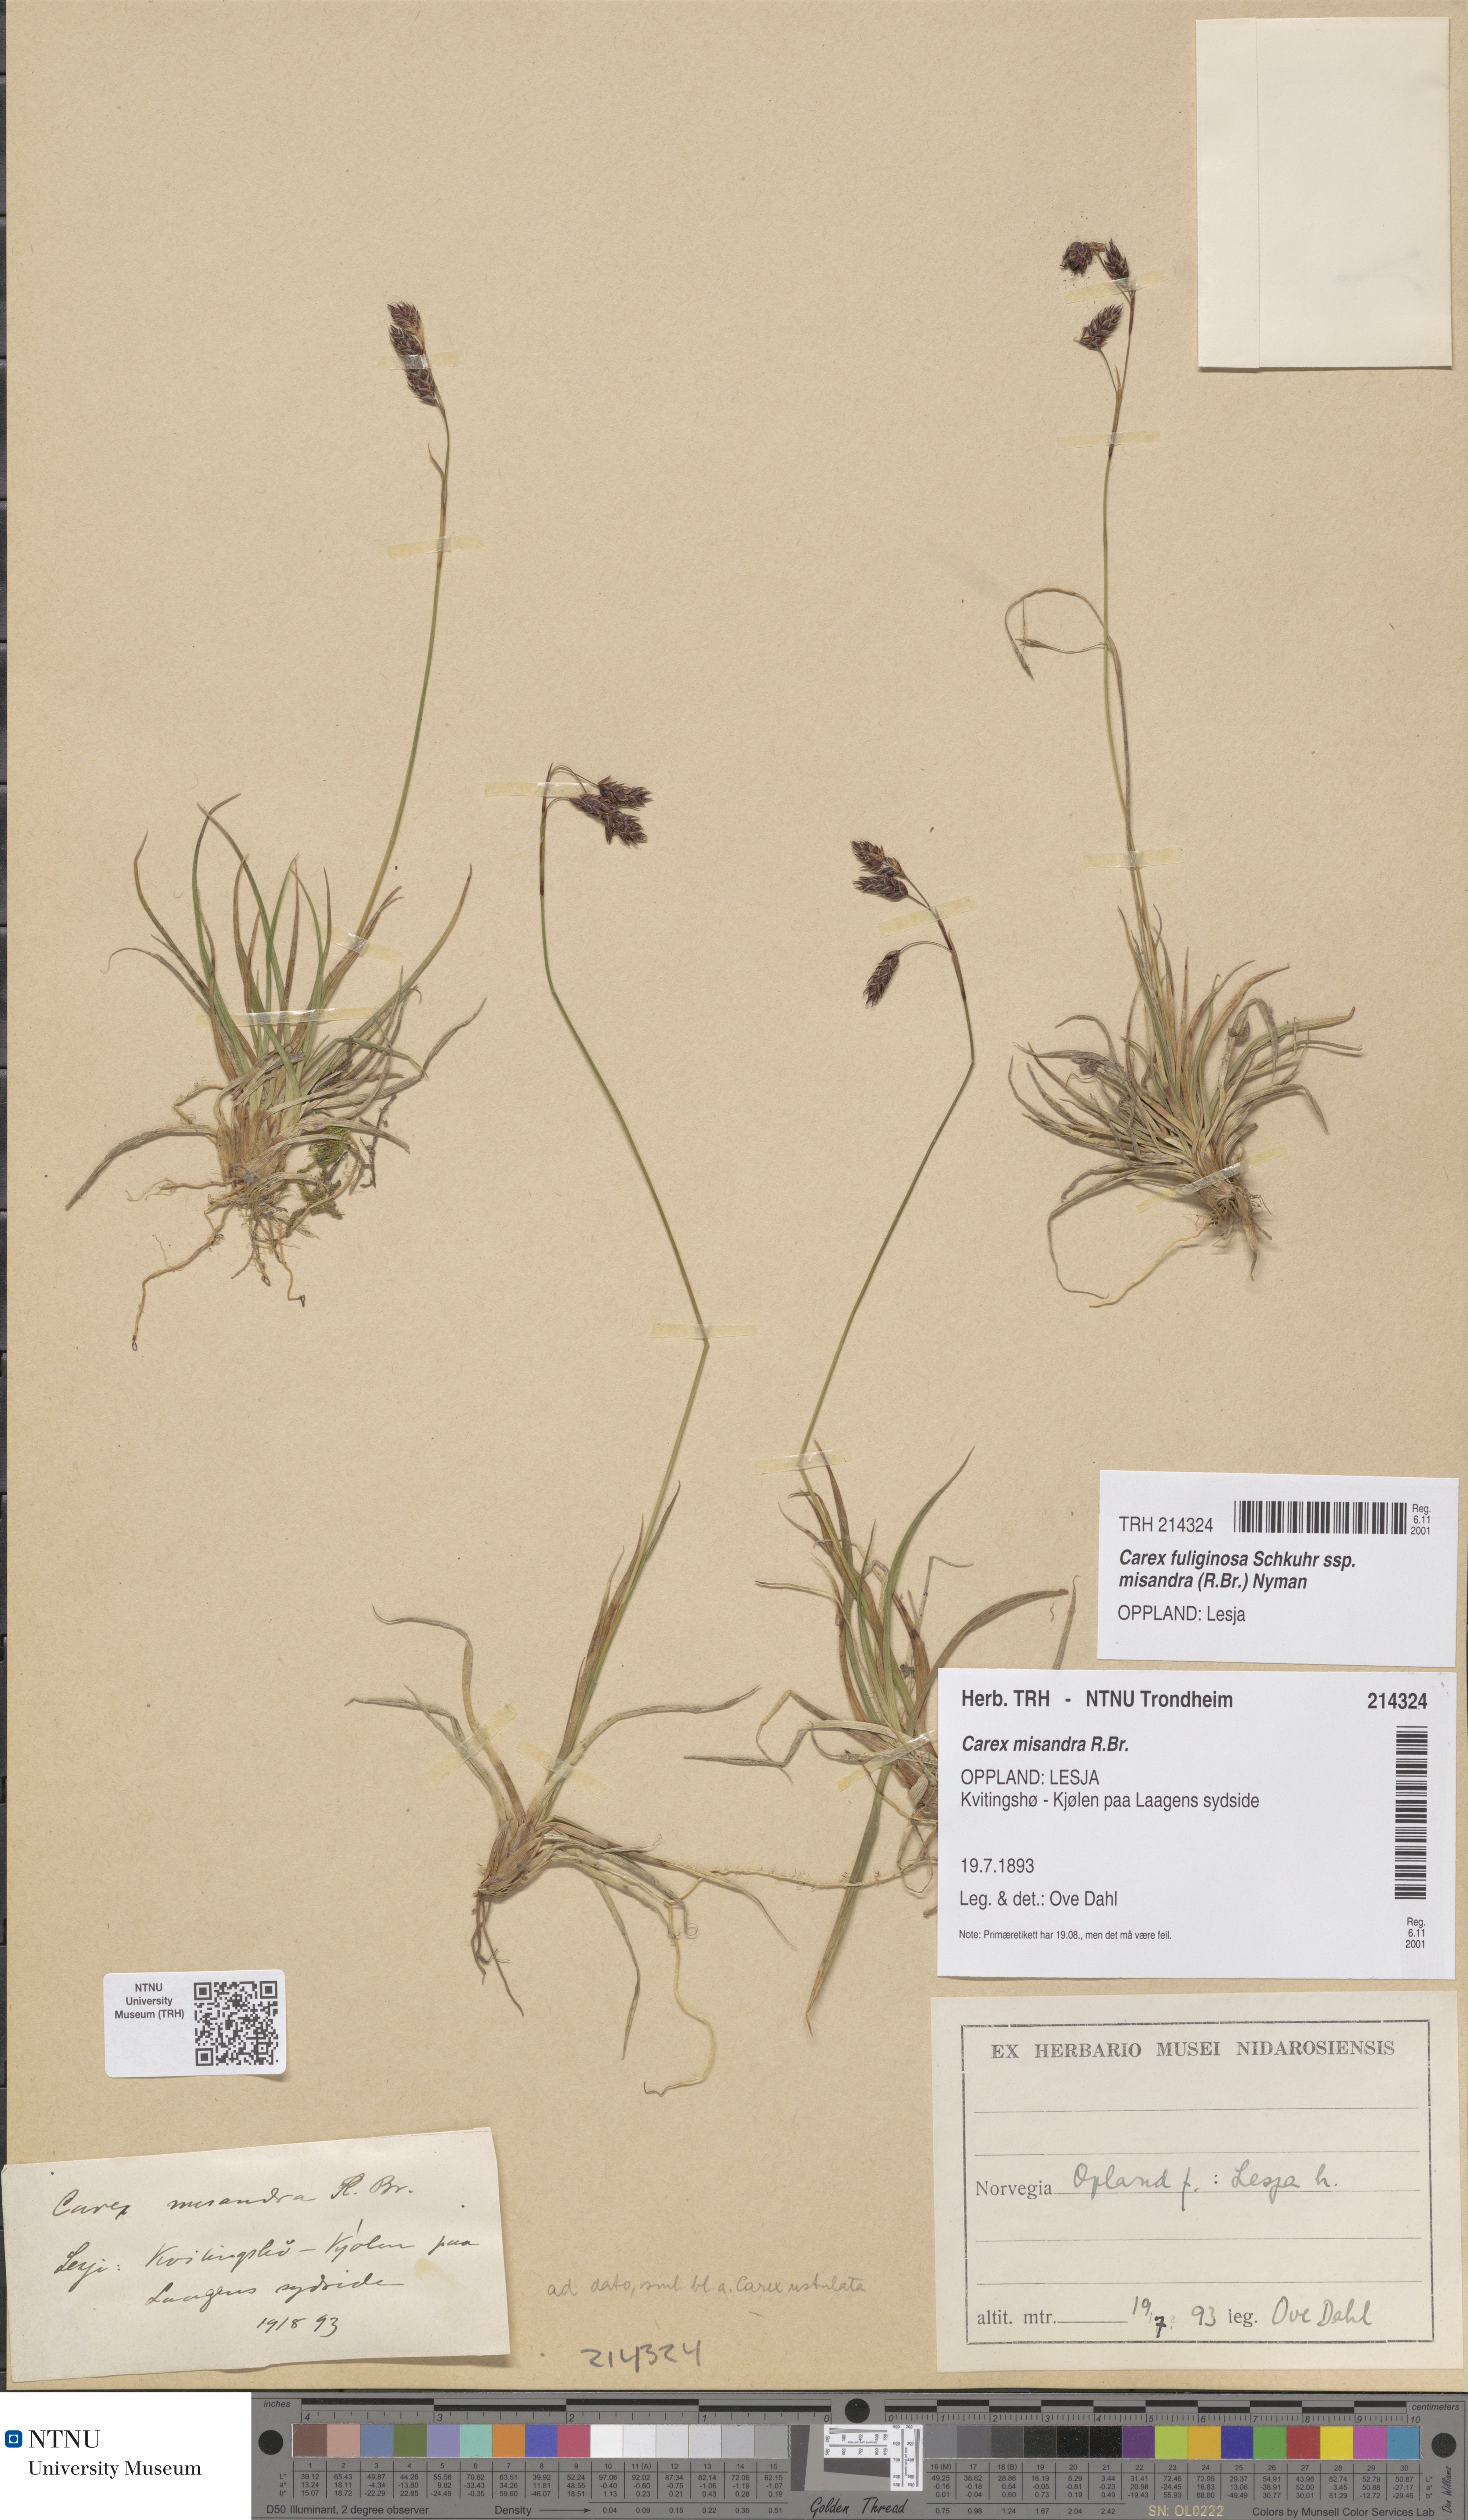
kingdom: Plantae
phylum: Tracheophyta
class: Liliopsida
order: Poales
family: Cyperaceae
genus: Carex
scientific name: Carex fuliginosa
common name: Few-flowered sedge
